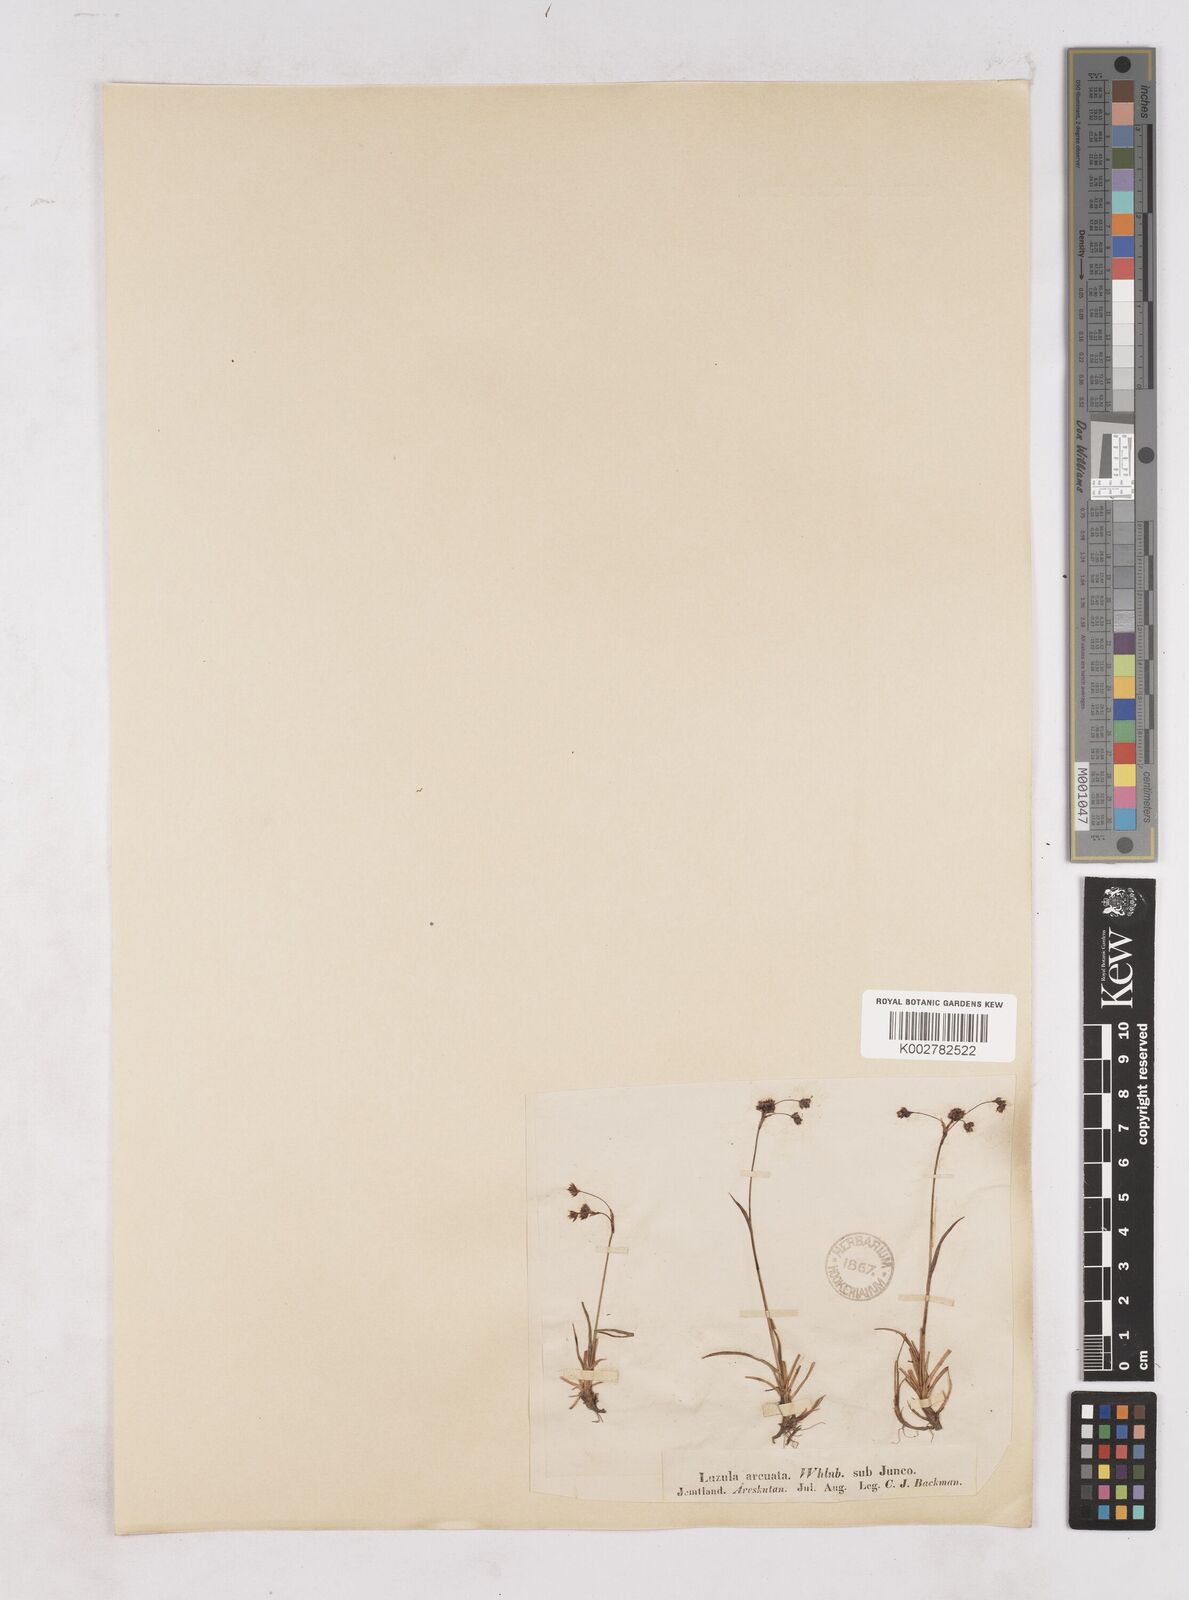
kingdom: Plantae
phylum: Tracheophyta
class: Liliopsida
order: Poales
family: Juncaceae
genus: Luzula
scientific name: Luzula arcuata
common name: Curved wood-rush
